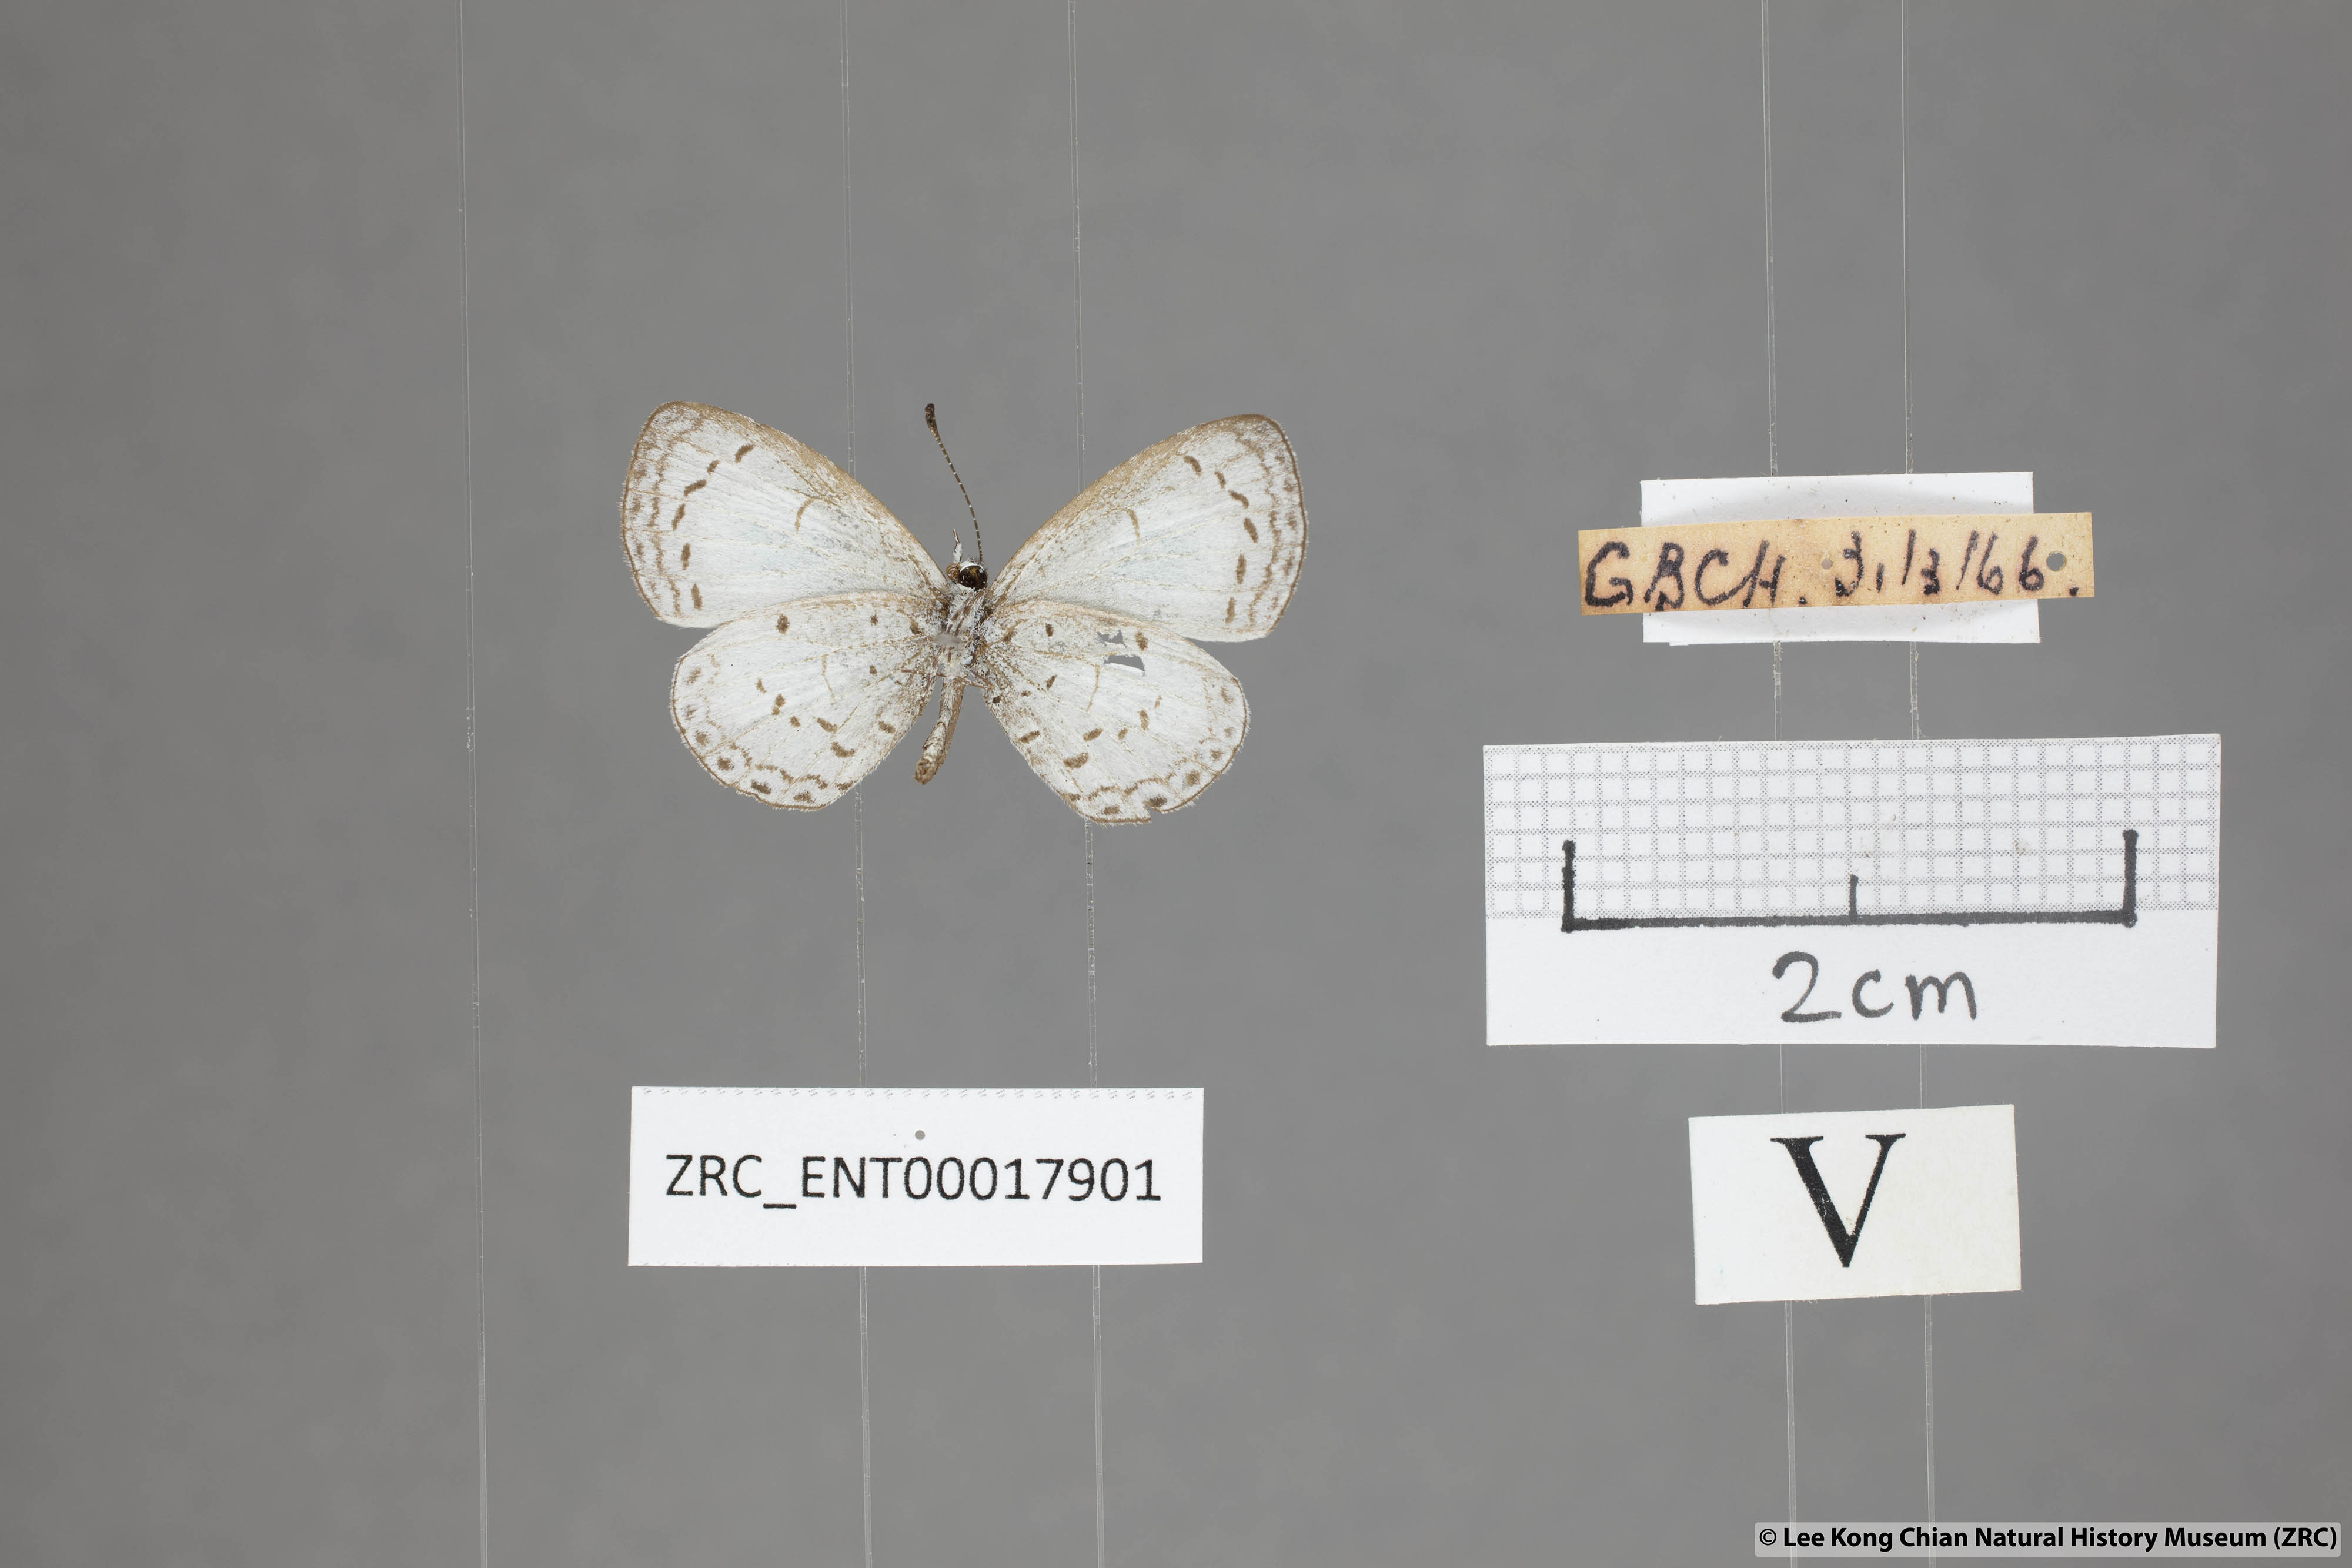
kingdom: Animalia
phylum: Arthropoda
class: Insecta
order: Lepidoptera
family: Lycaenidae
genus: Oreolyce
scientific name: Oreolyce
